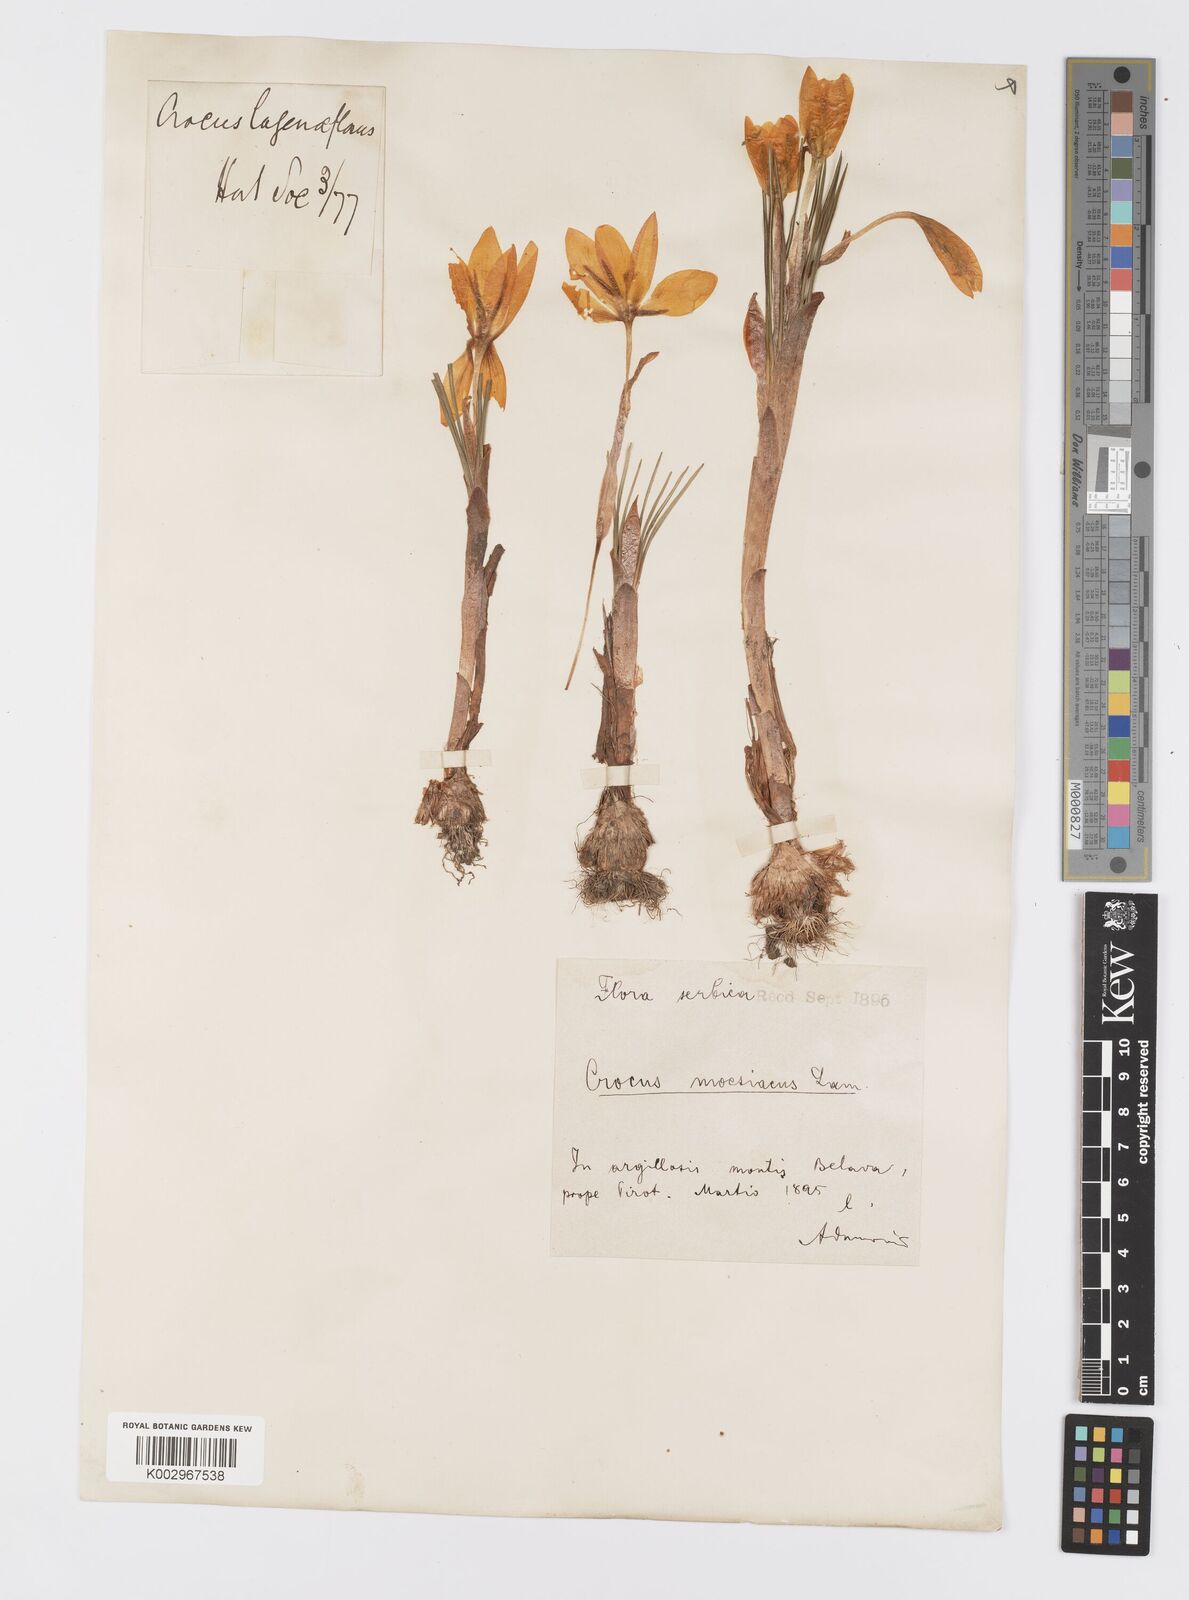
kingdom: Plantae
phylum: Tracheophyta
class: Liliopsida
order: Asparagales
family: Iridaceae
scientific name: Iridaceae
